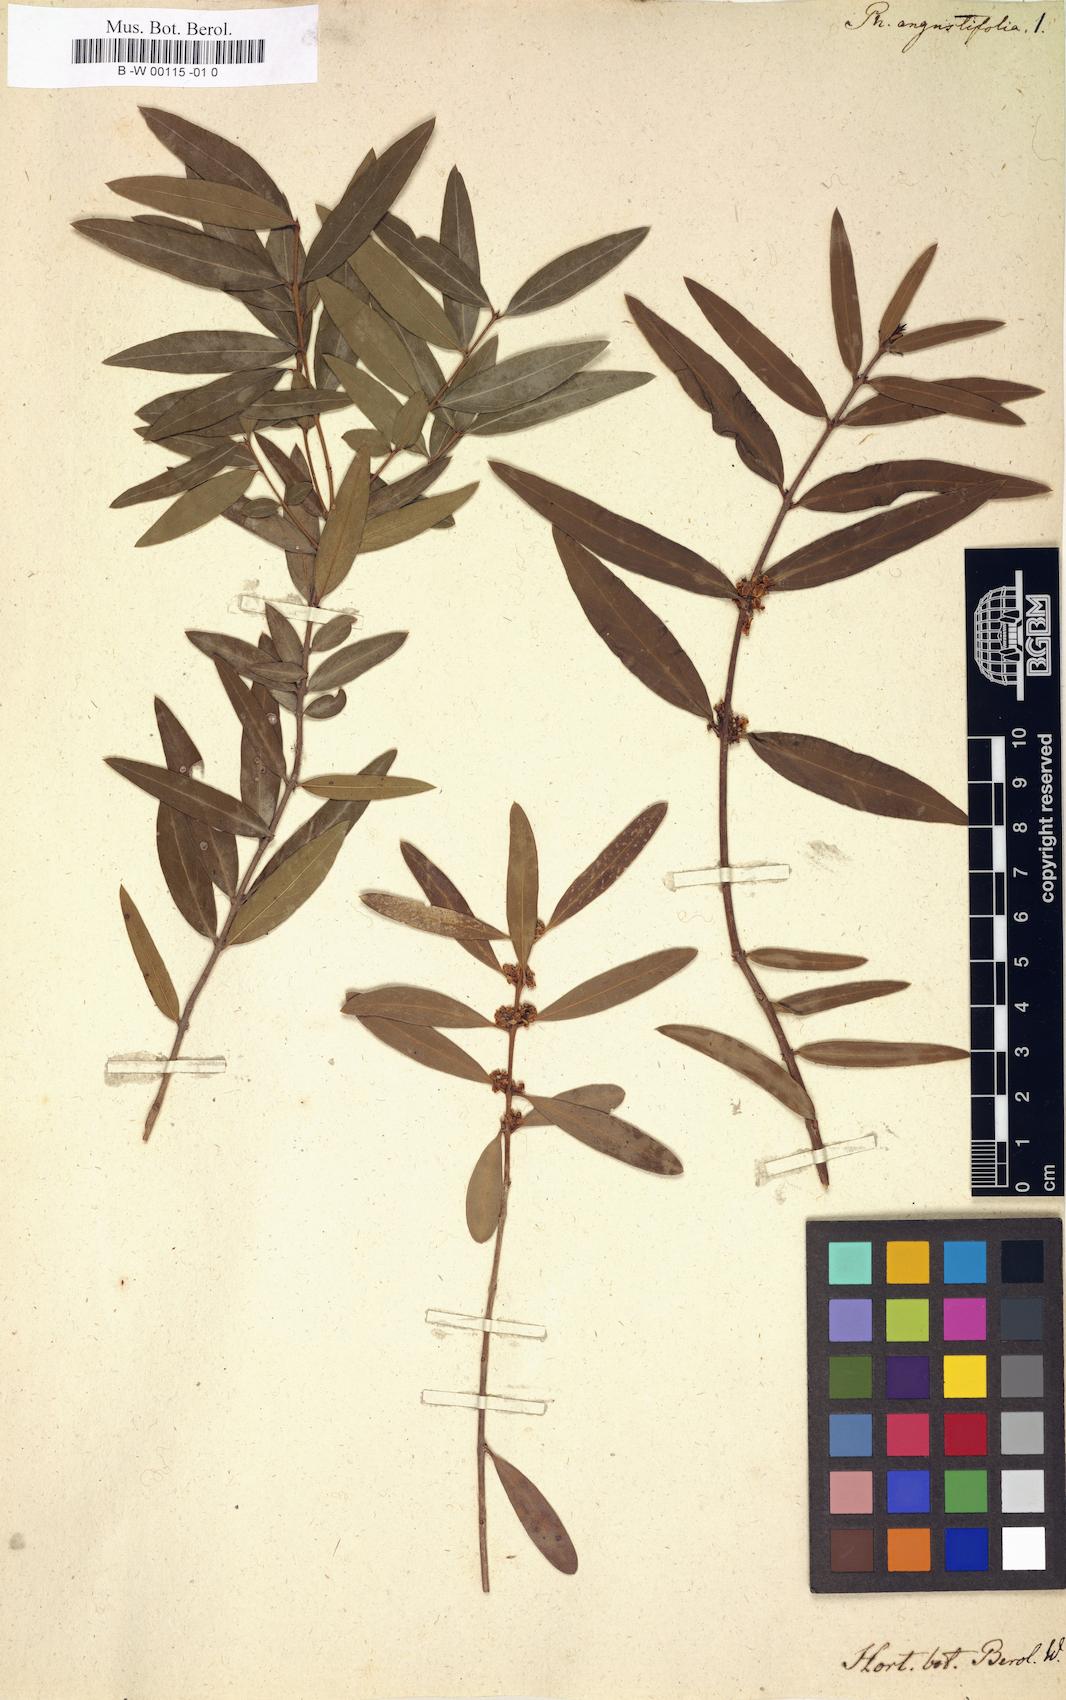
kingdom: Plantae
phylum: Tracheophyta
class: Magnoliopsida
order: Lamiales
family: Oleaceae
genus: Phillyrea
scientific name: Phillyrea angustifolia
